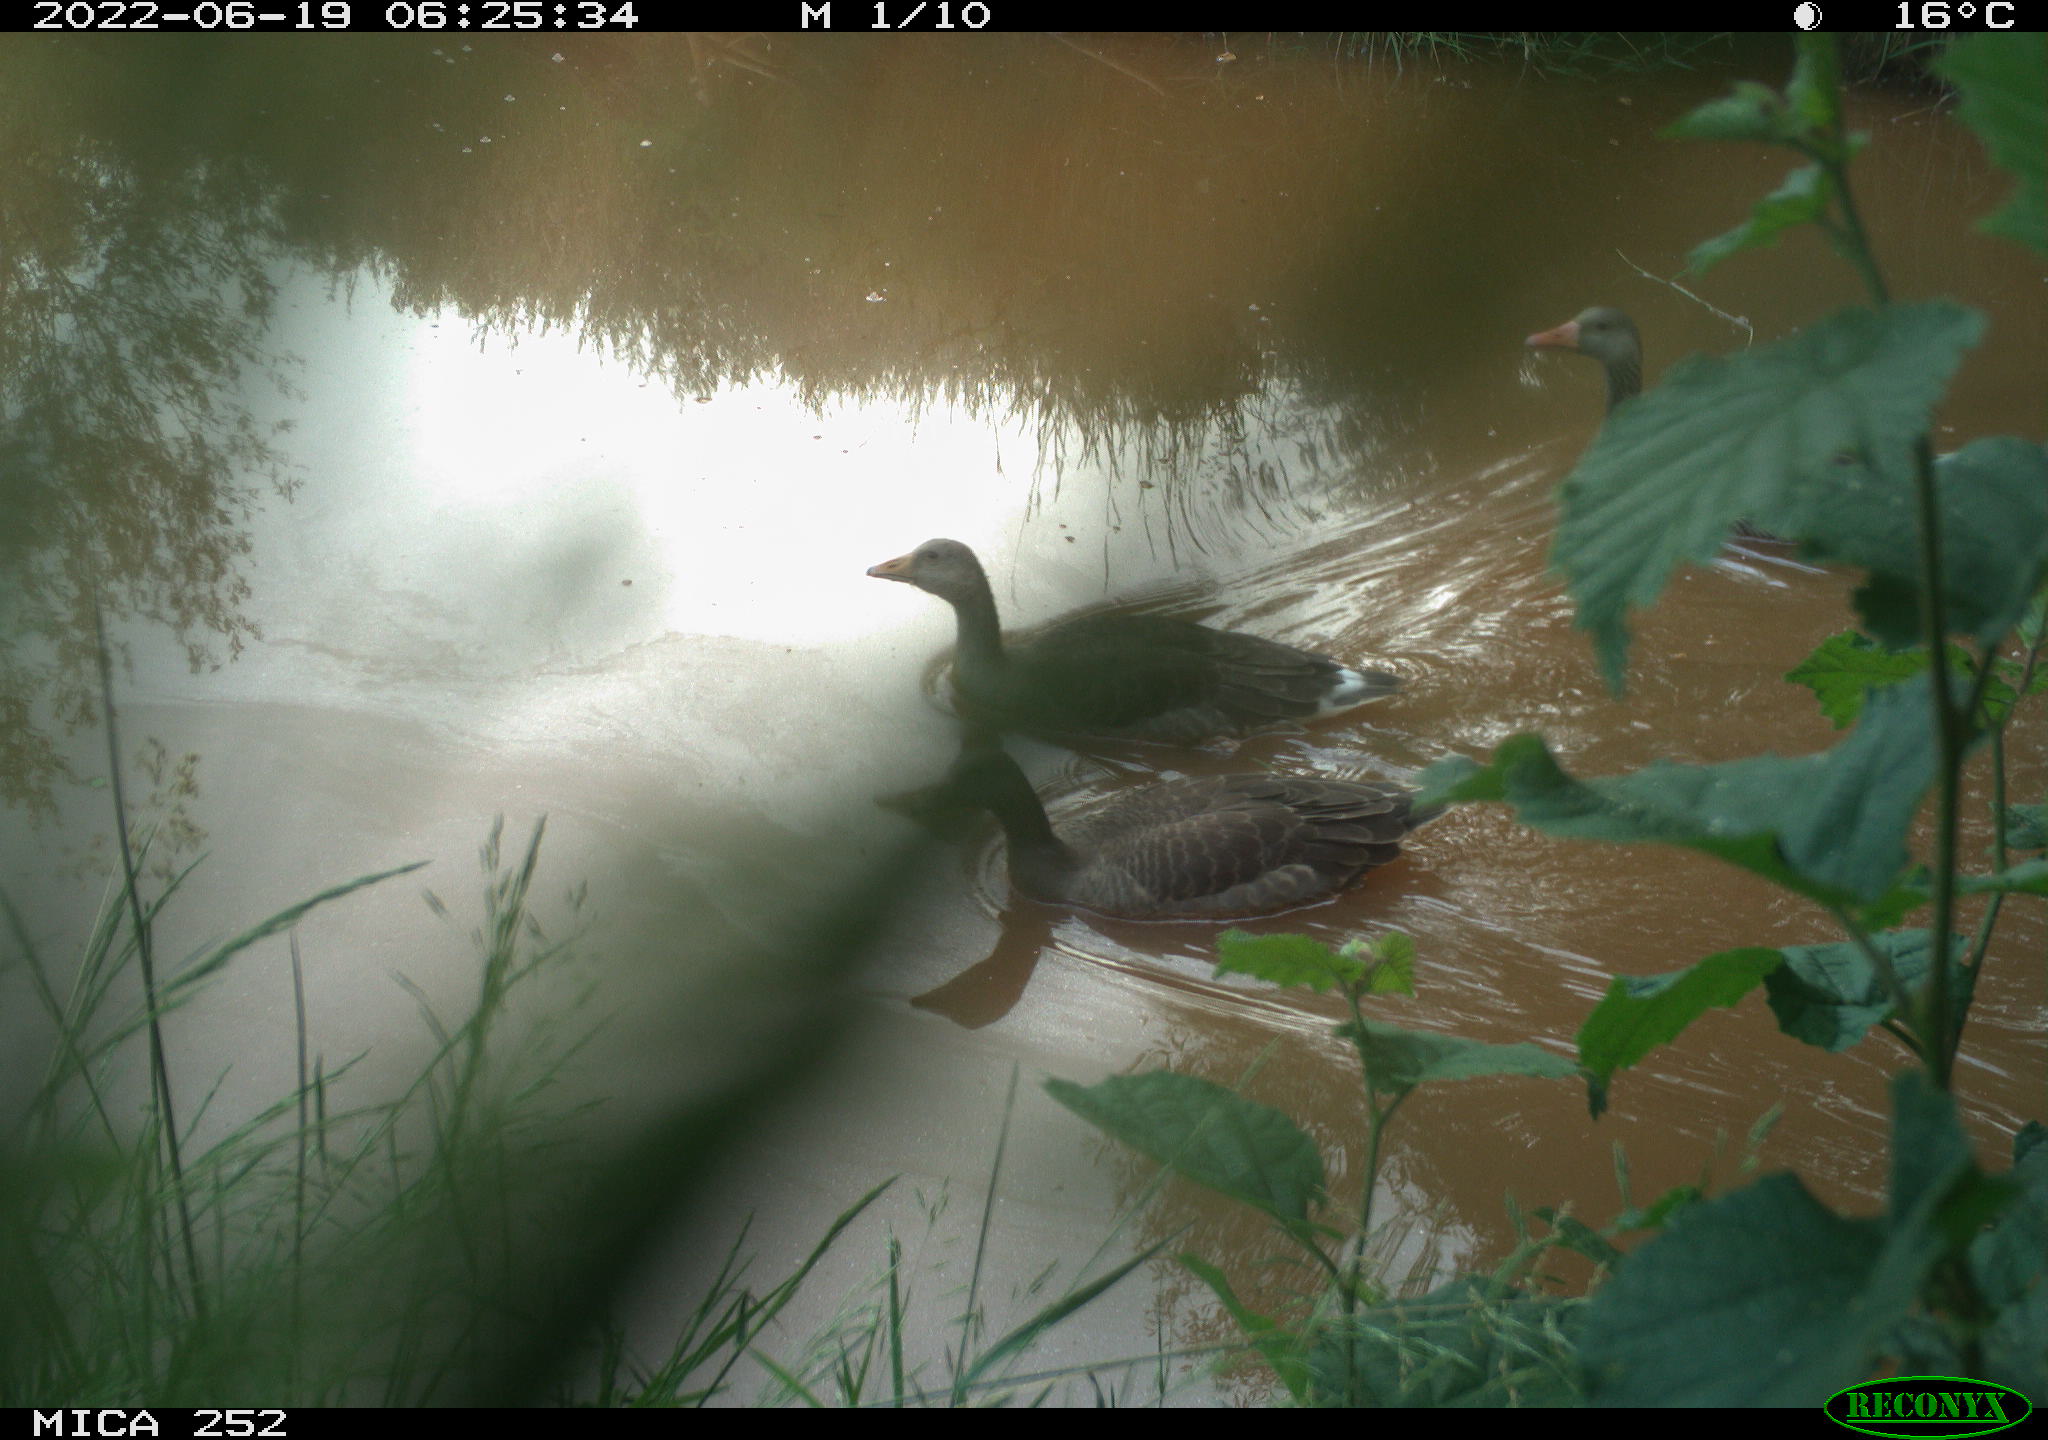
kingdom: Animalia
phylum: Chordata
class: Aves
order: Anseriformes
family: Anatidae
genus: Anser
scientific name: Anser anser
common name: Greylag goose
